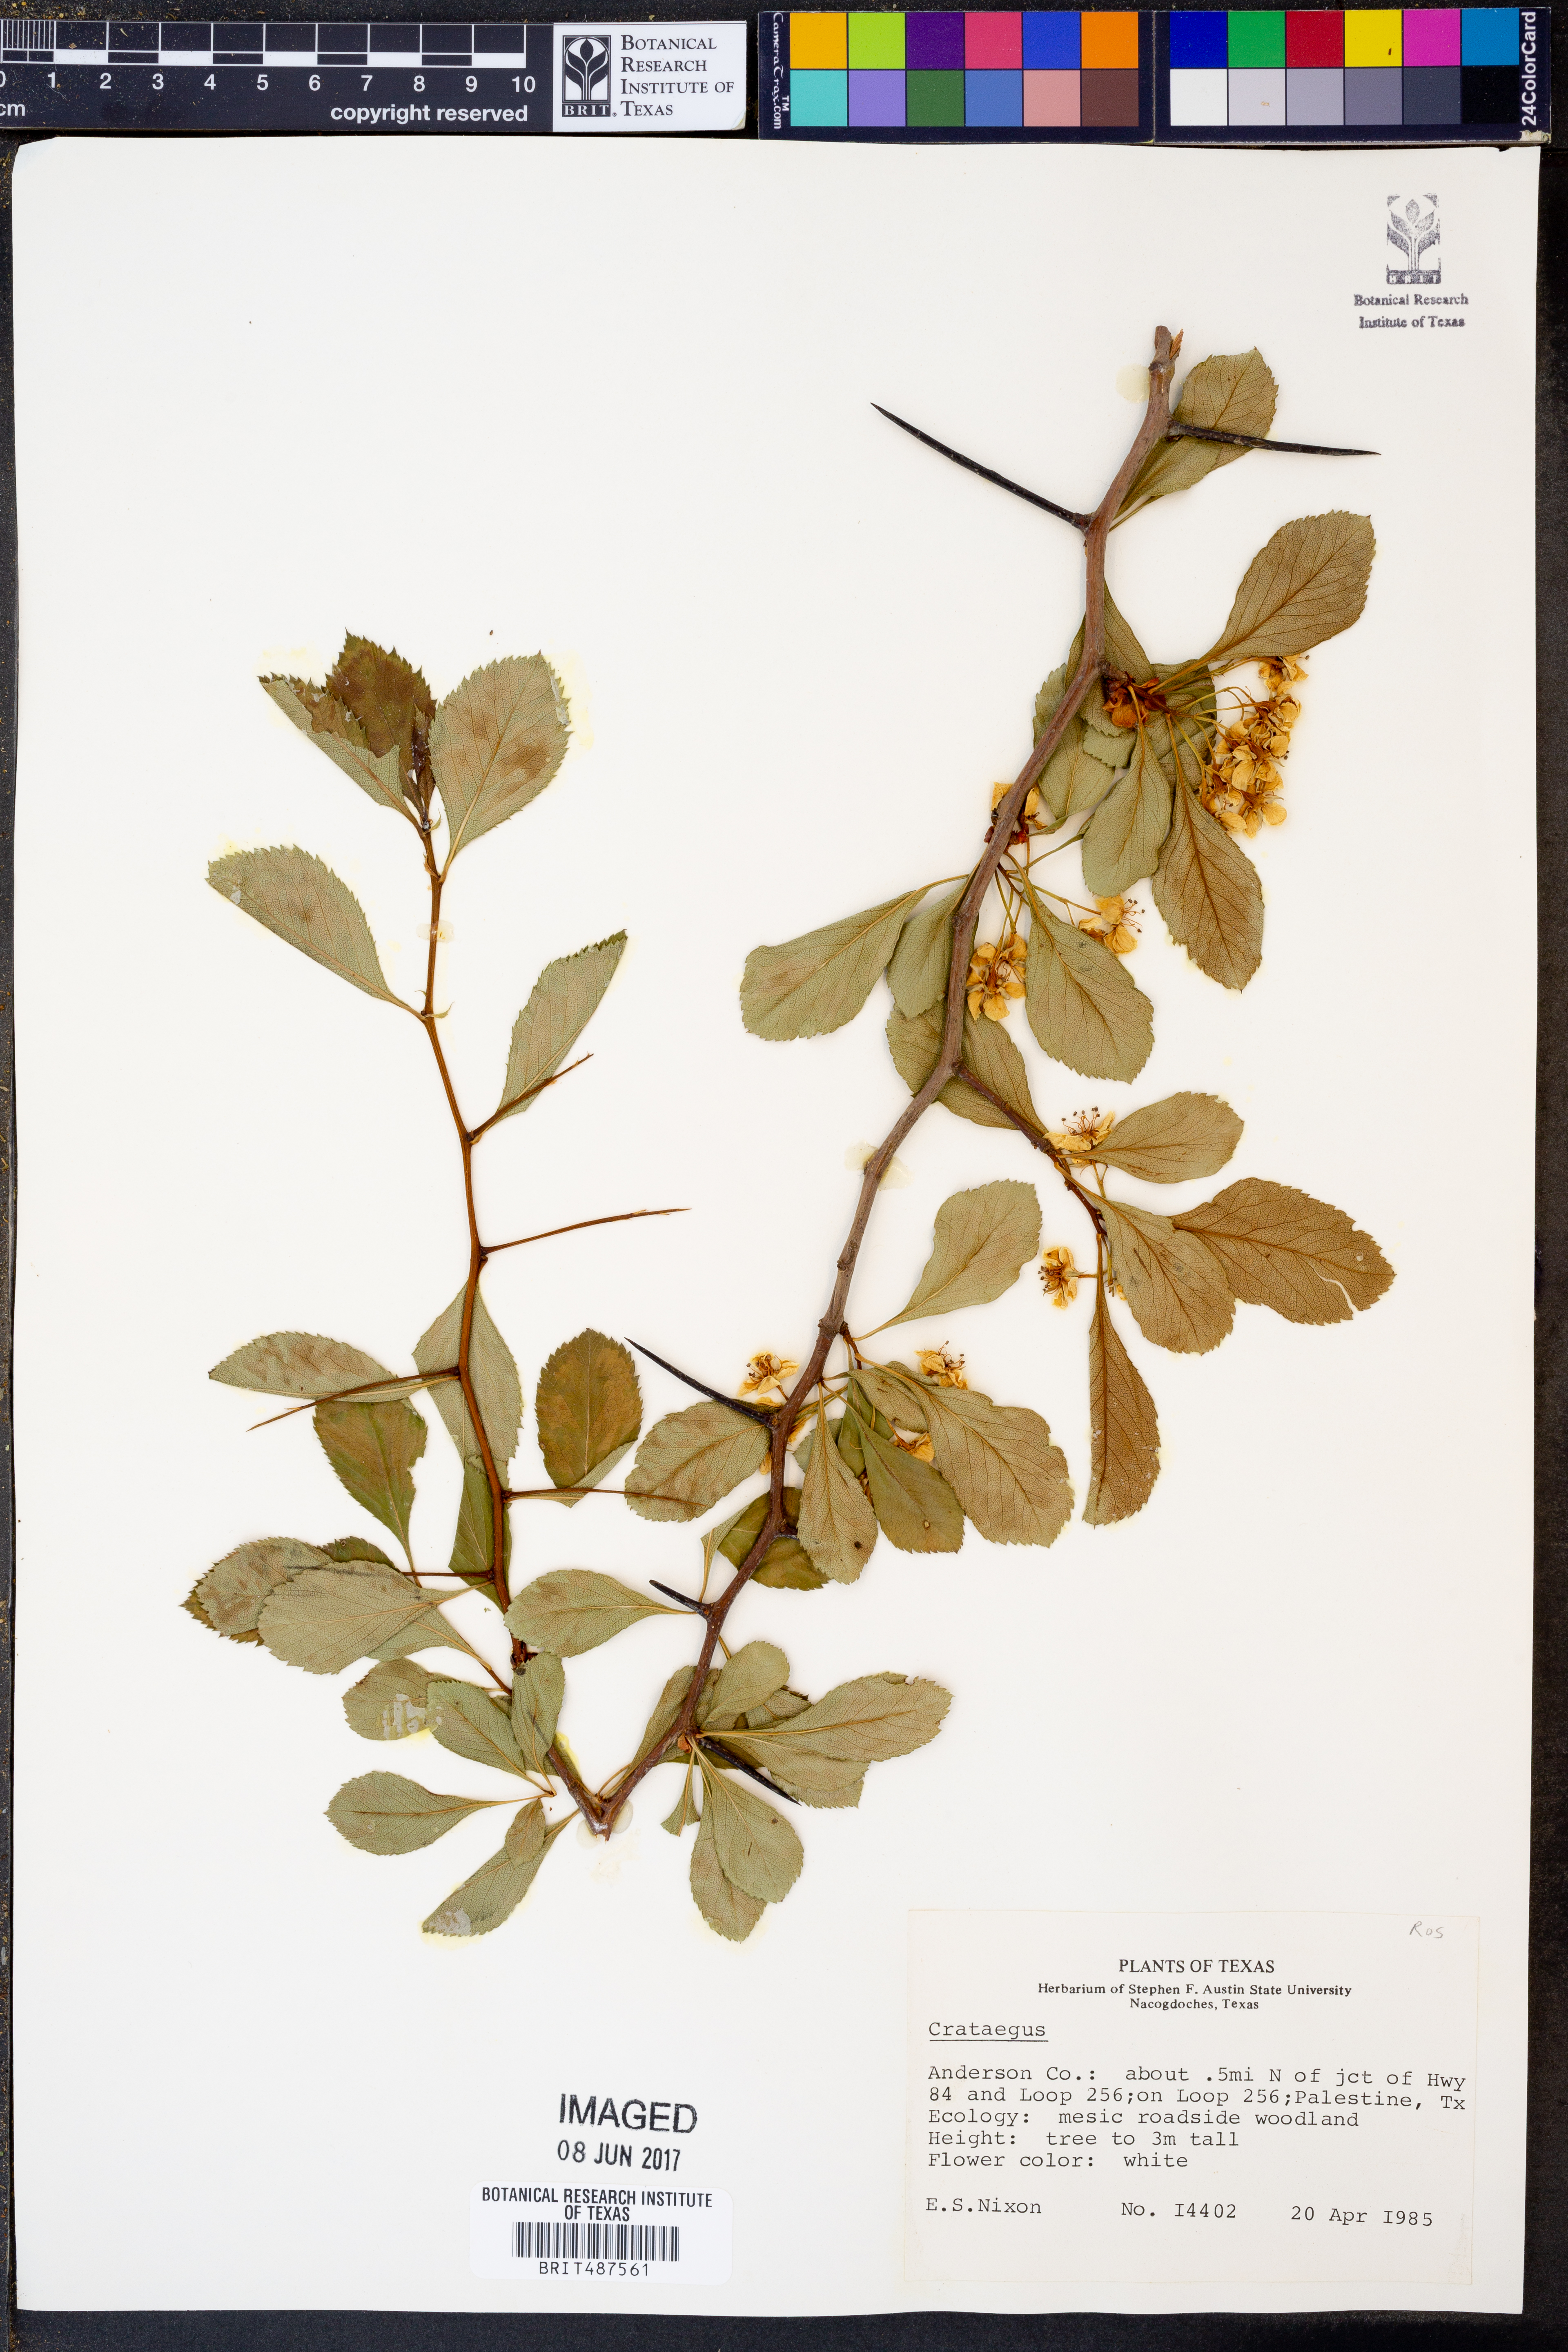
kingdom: Plantae
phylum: Tracheophyta
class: Magnoliopsida
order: Rosales
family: Rosaceae
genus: Crataegus
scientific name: Crataegus
